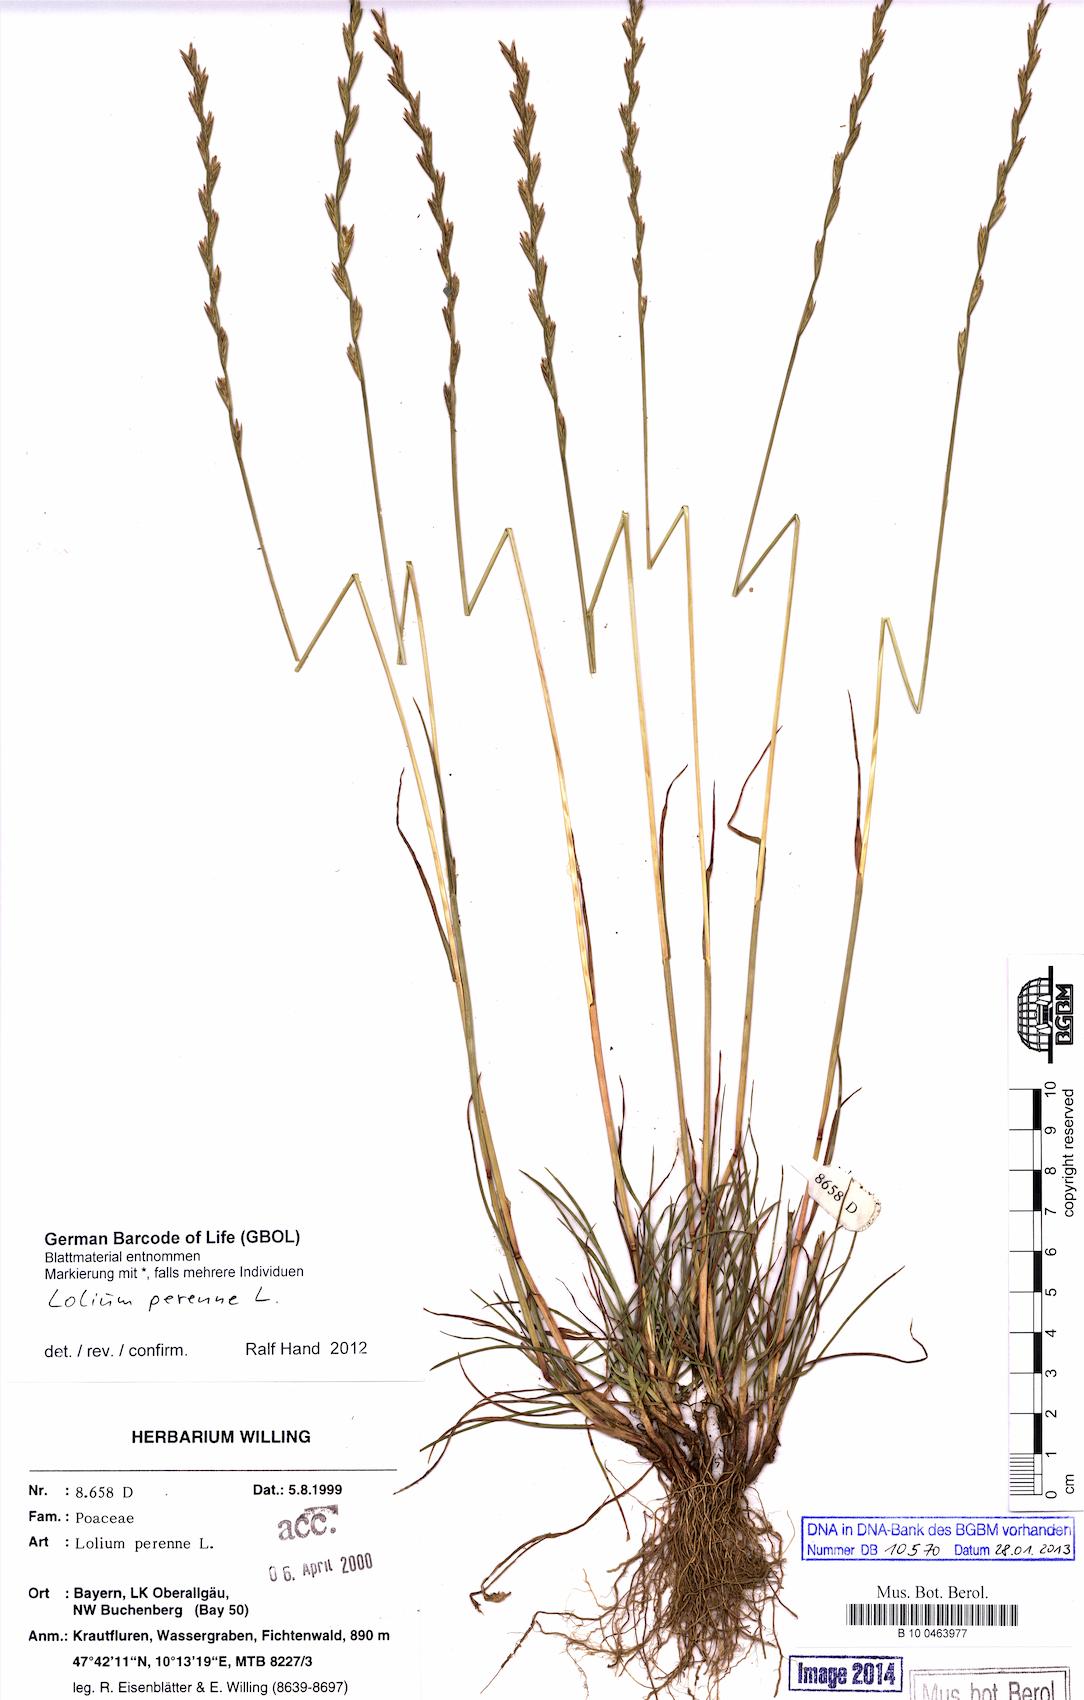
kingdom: Plantae
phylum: Tracheophyta
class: Liliopsida
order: Poales
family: Poaceae
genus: Lolium
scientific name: Lolium perenne
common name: Perennial ryegrass
